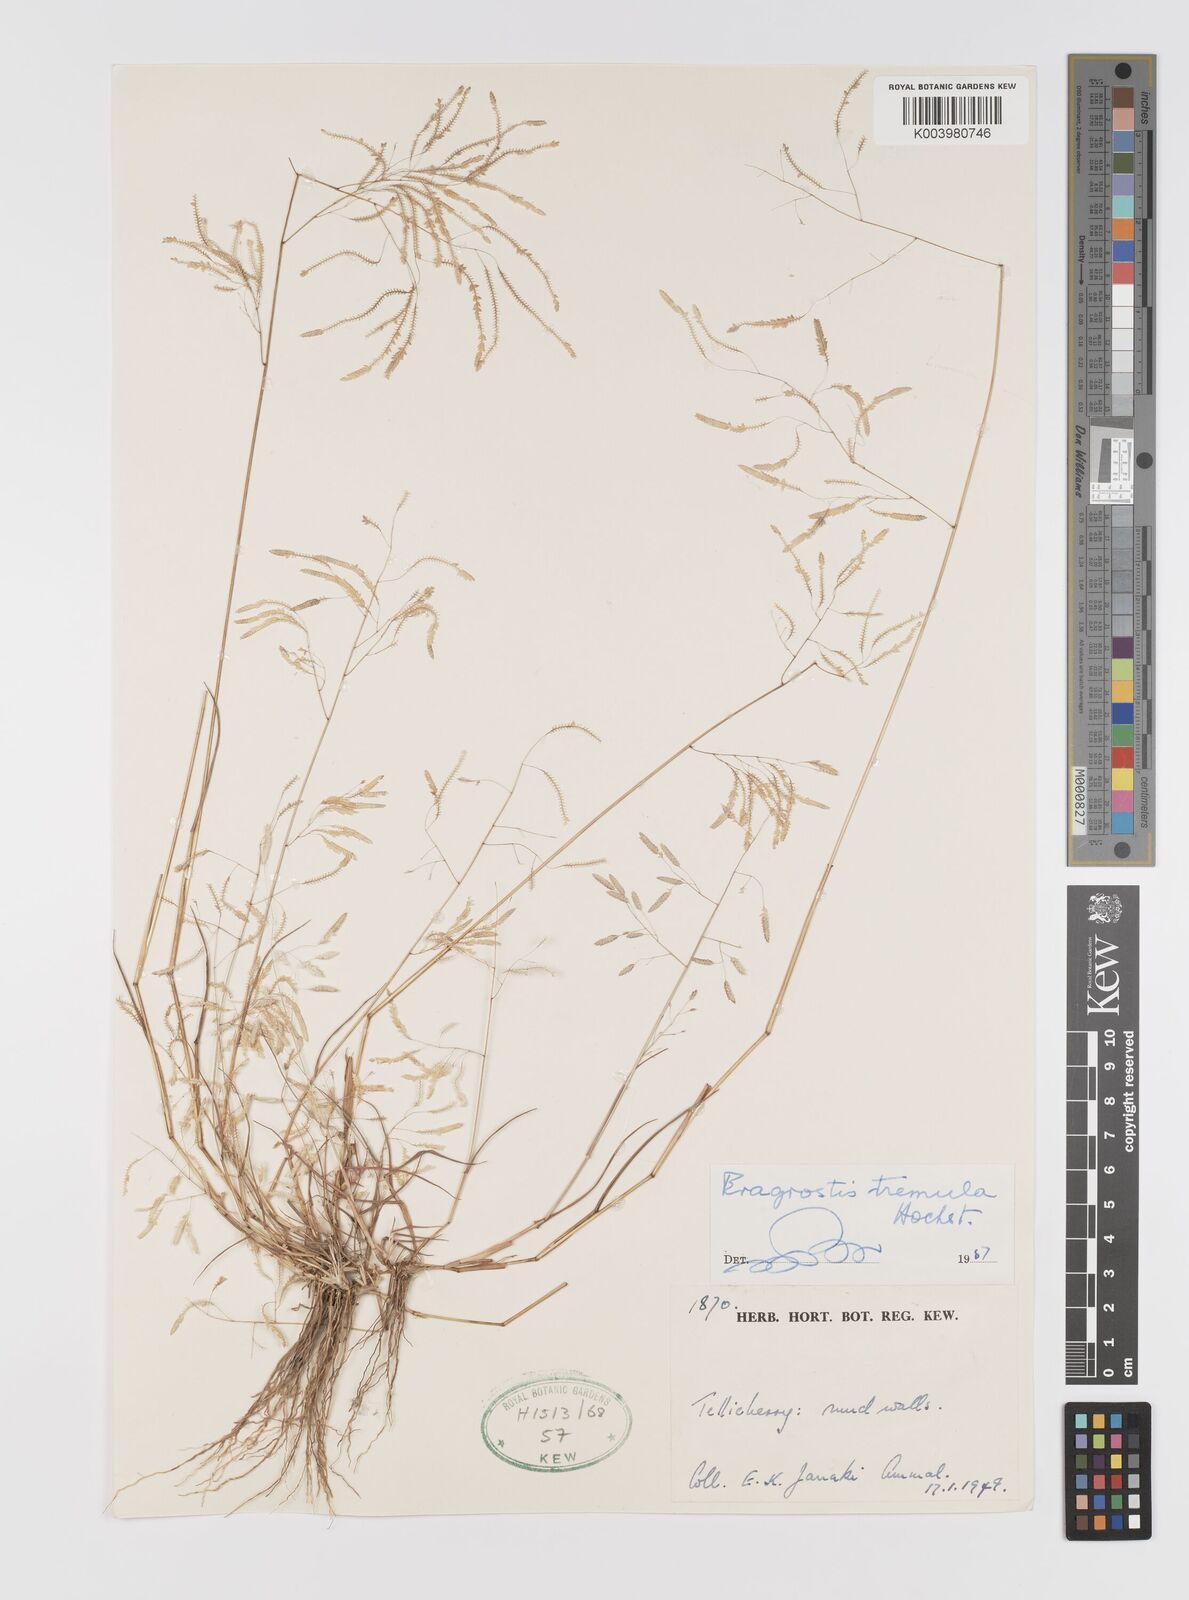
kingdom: Plantae
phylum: Tracheophyta
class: Liliopsida
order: Poales
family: Poaceae
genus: Eragrostis
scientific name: Eragrostis tremula
